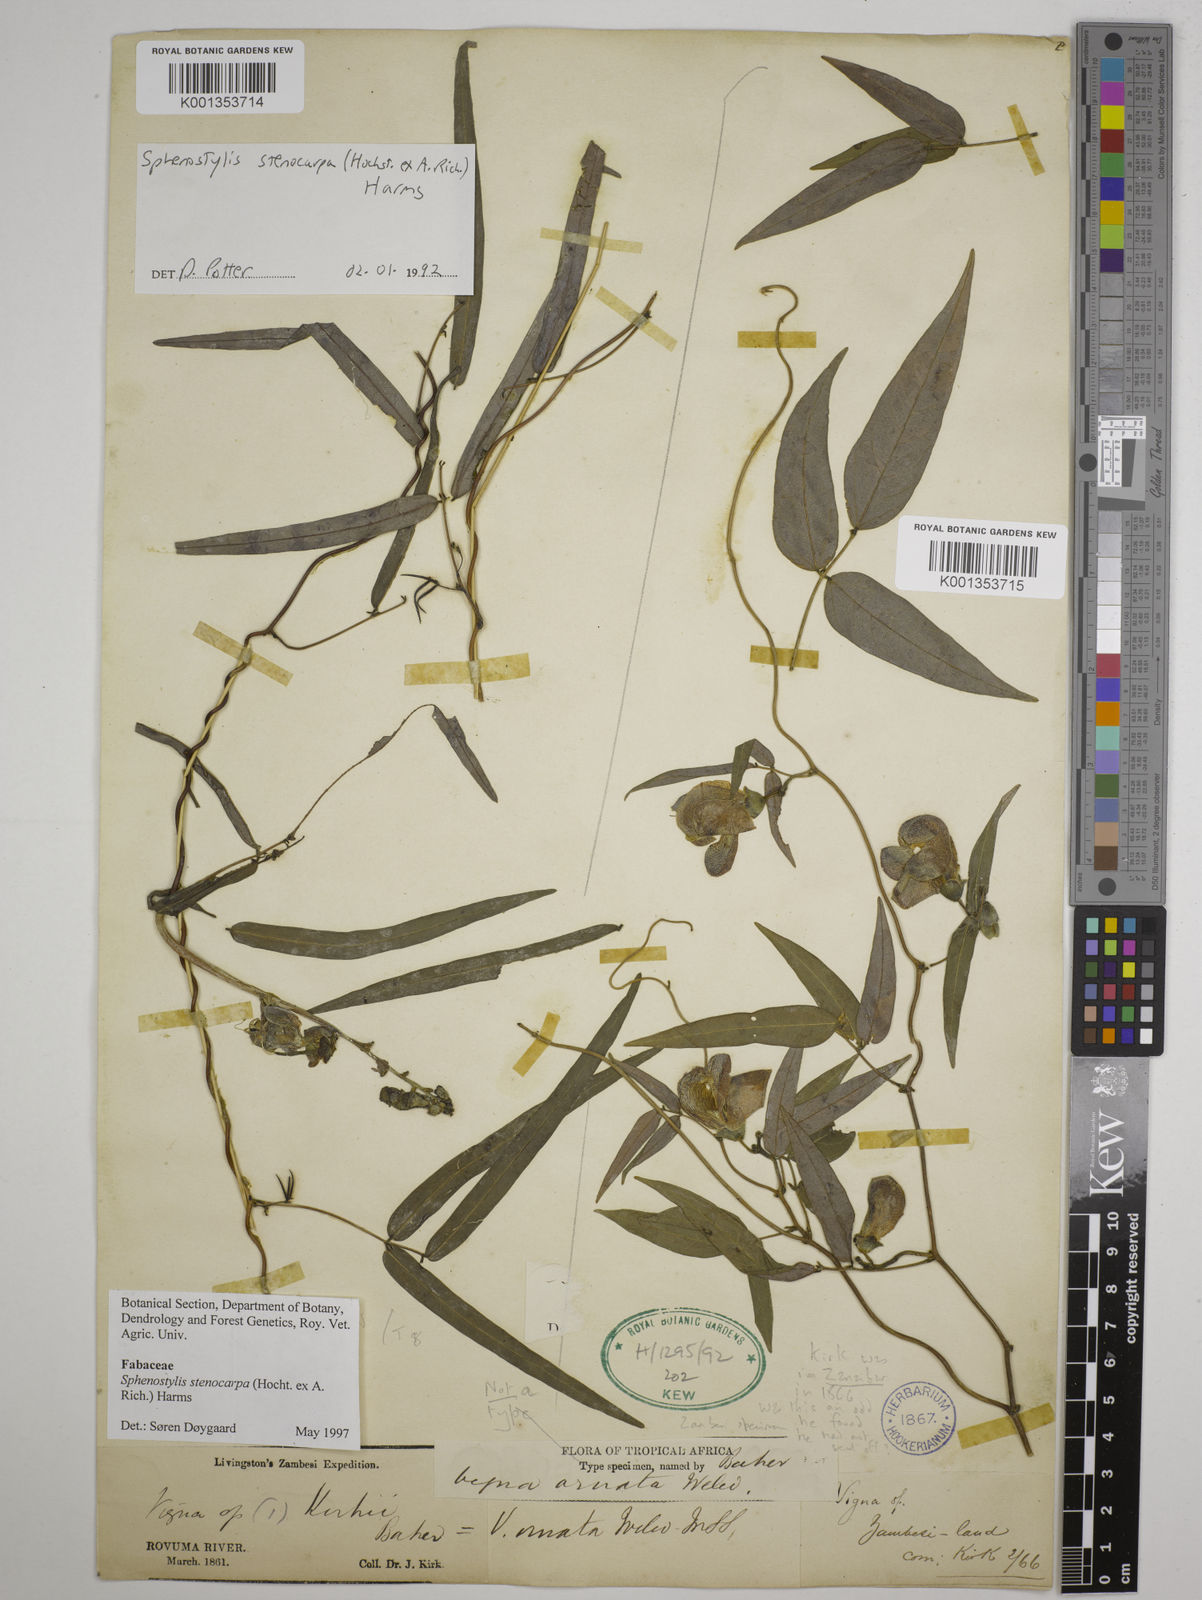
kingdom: Plantae
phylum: Tracheophyta
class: Magnoliopsida
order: Fabales
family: Fabaceae
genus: Sphenostylis
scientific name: Sphenostylis stenocarpa
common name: Yam-pea
